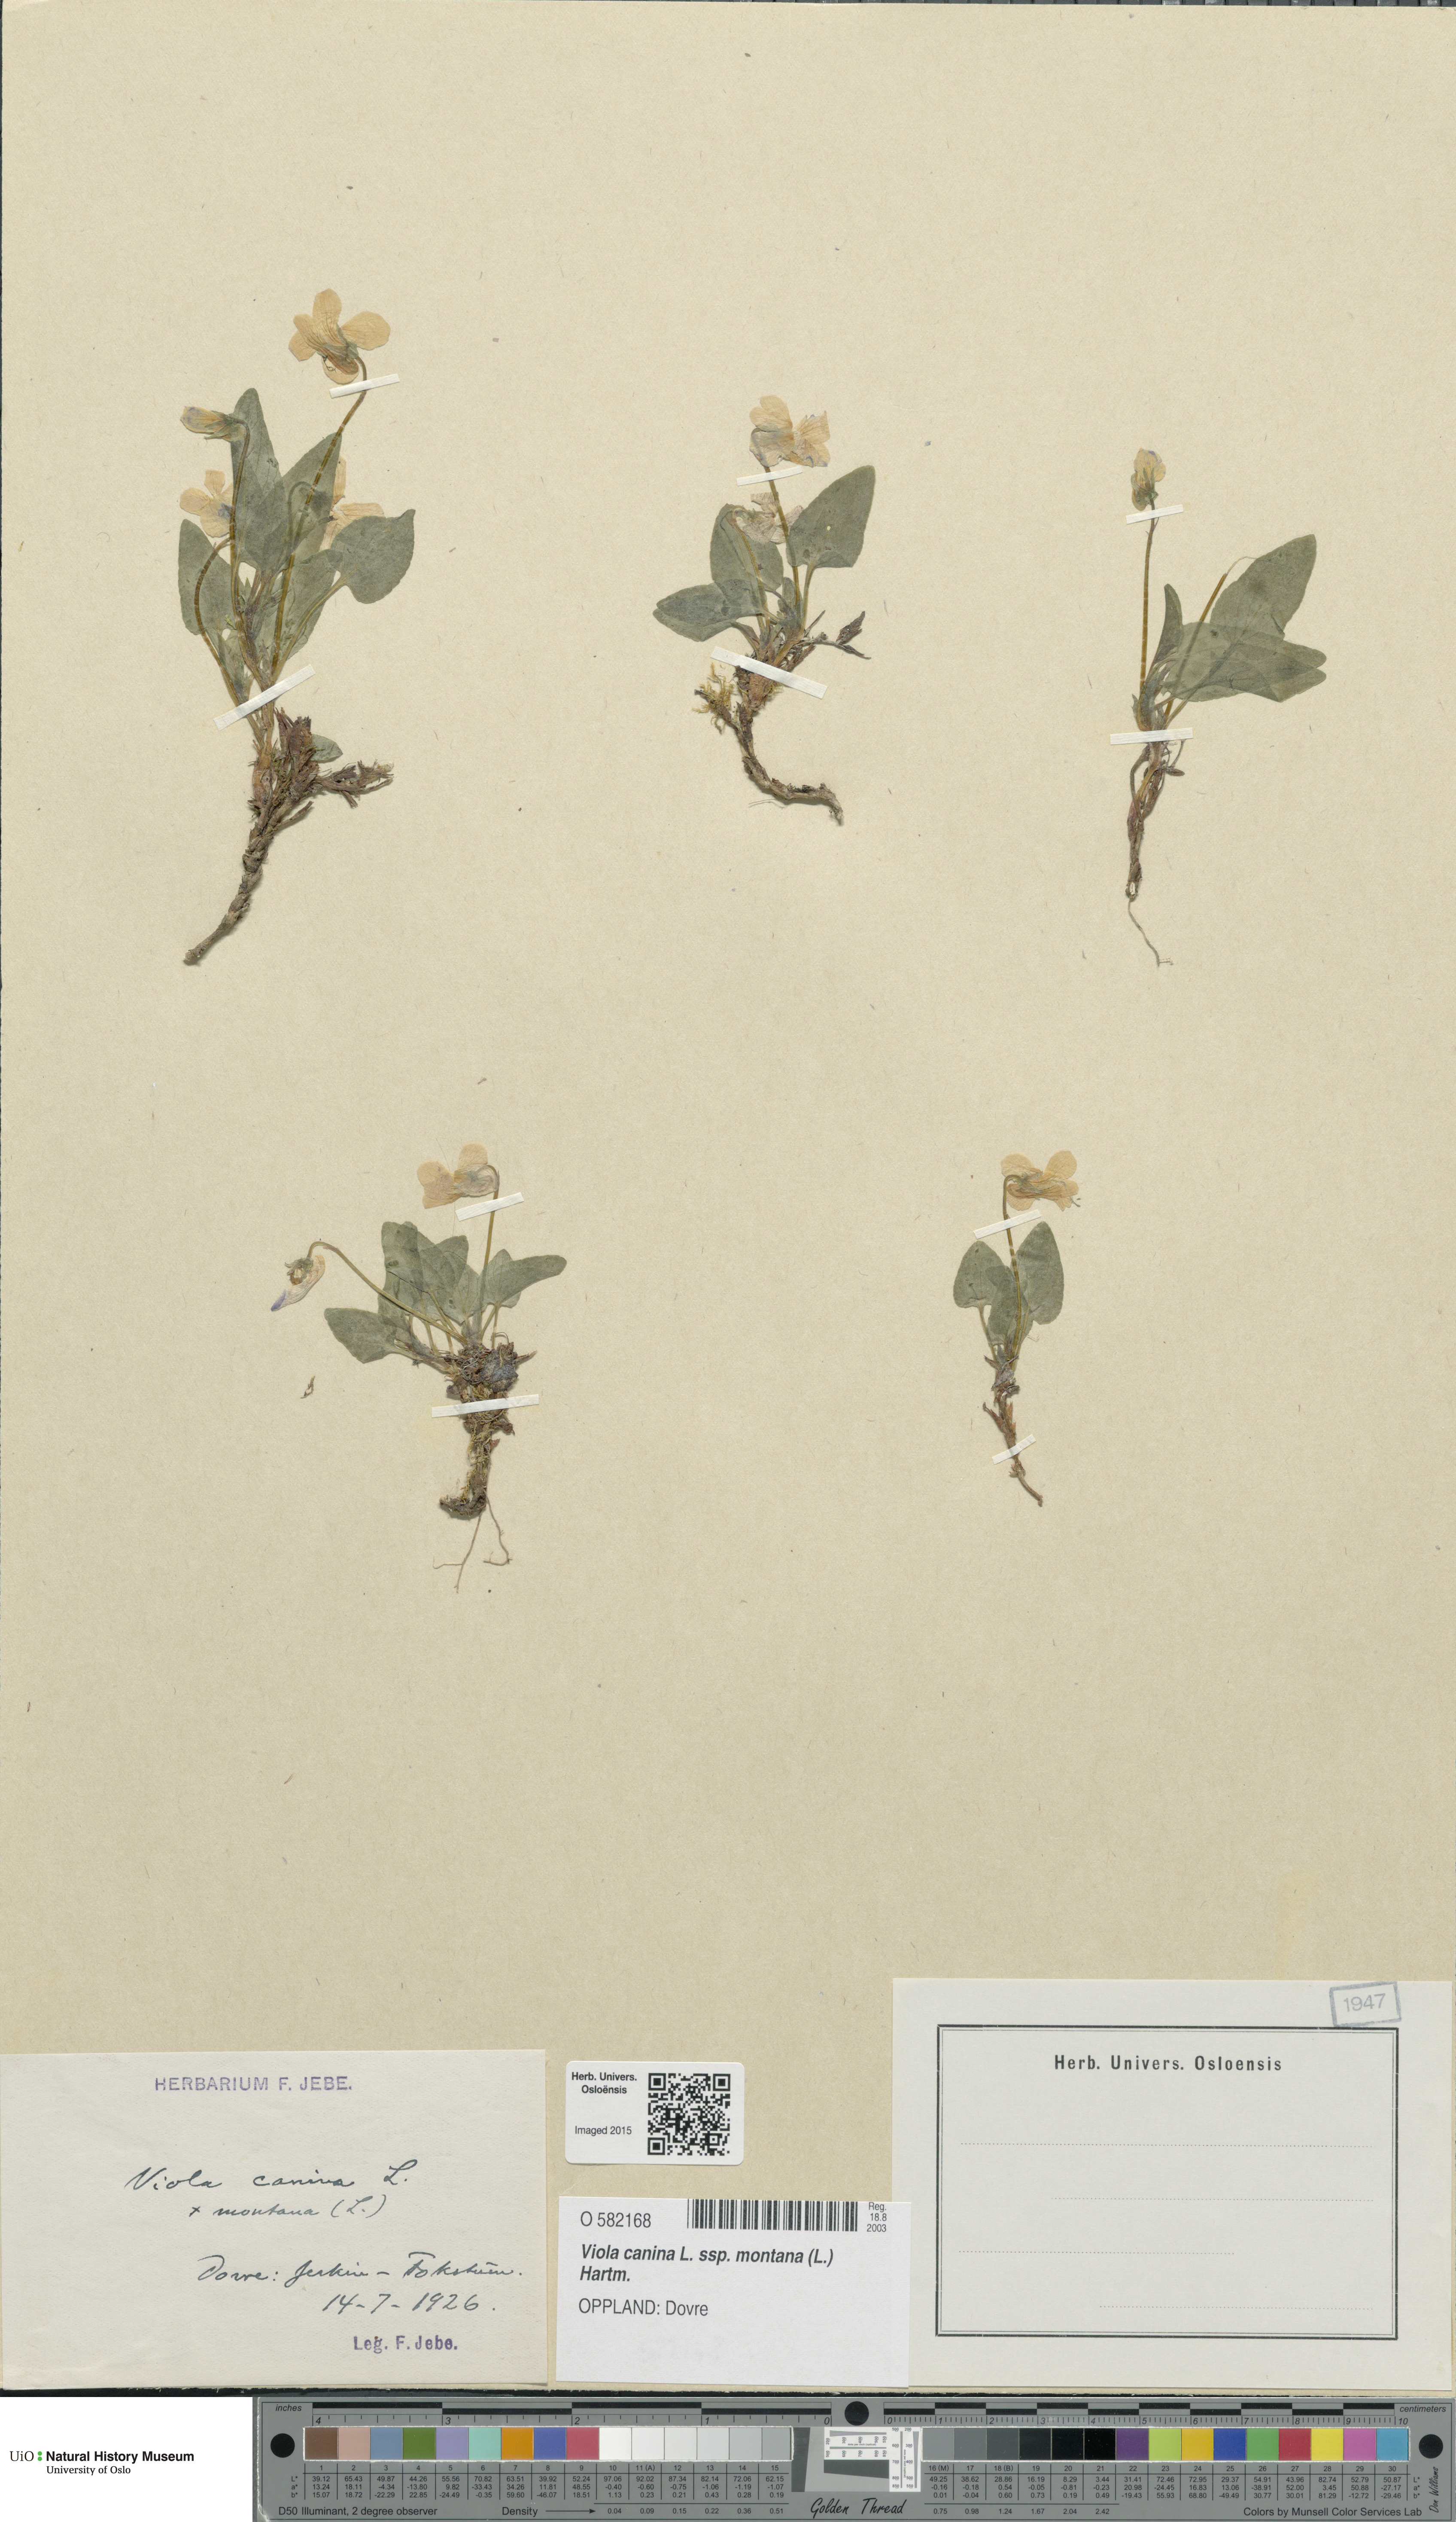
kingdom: Plantae
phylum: Tracheophyta
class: Magnoliopsida
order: Malpighiales
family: Violaceae
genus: Viola
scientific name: Viola ruppii
